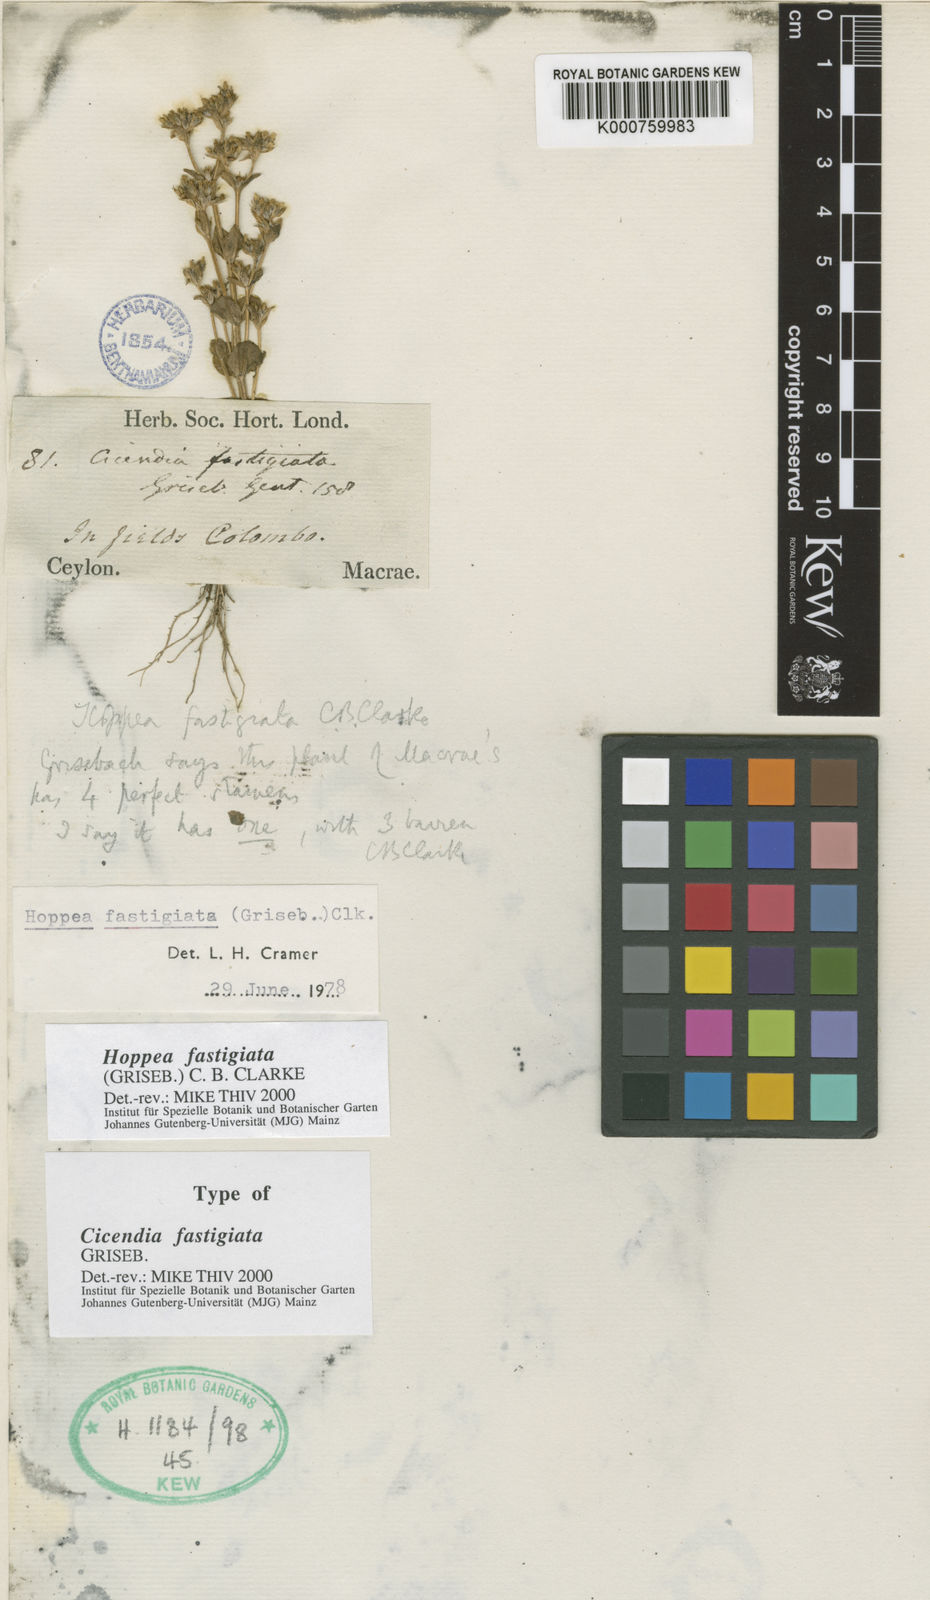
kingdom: Plantae
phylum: Tracheophyta
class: Magnoliopsida
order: Gentianales
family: Gentianaceae
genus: Hoppea
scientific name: Hoppea fastigiata
